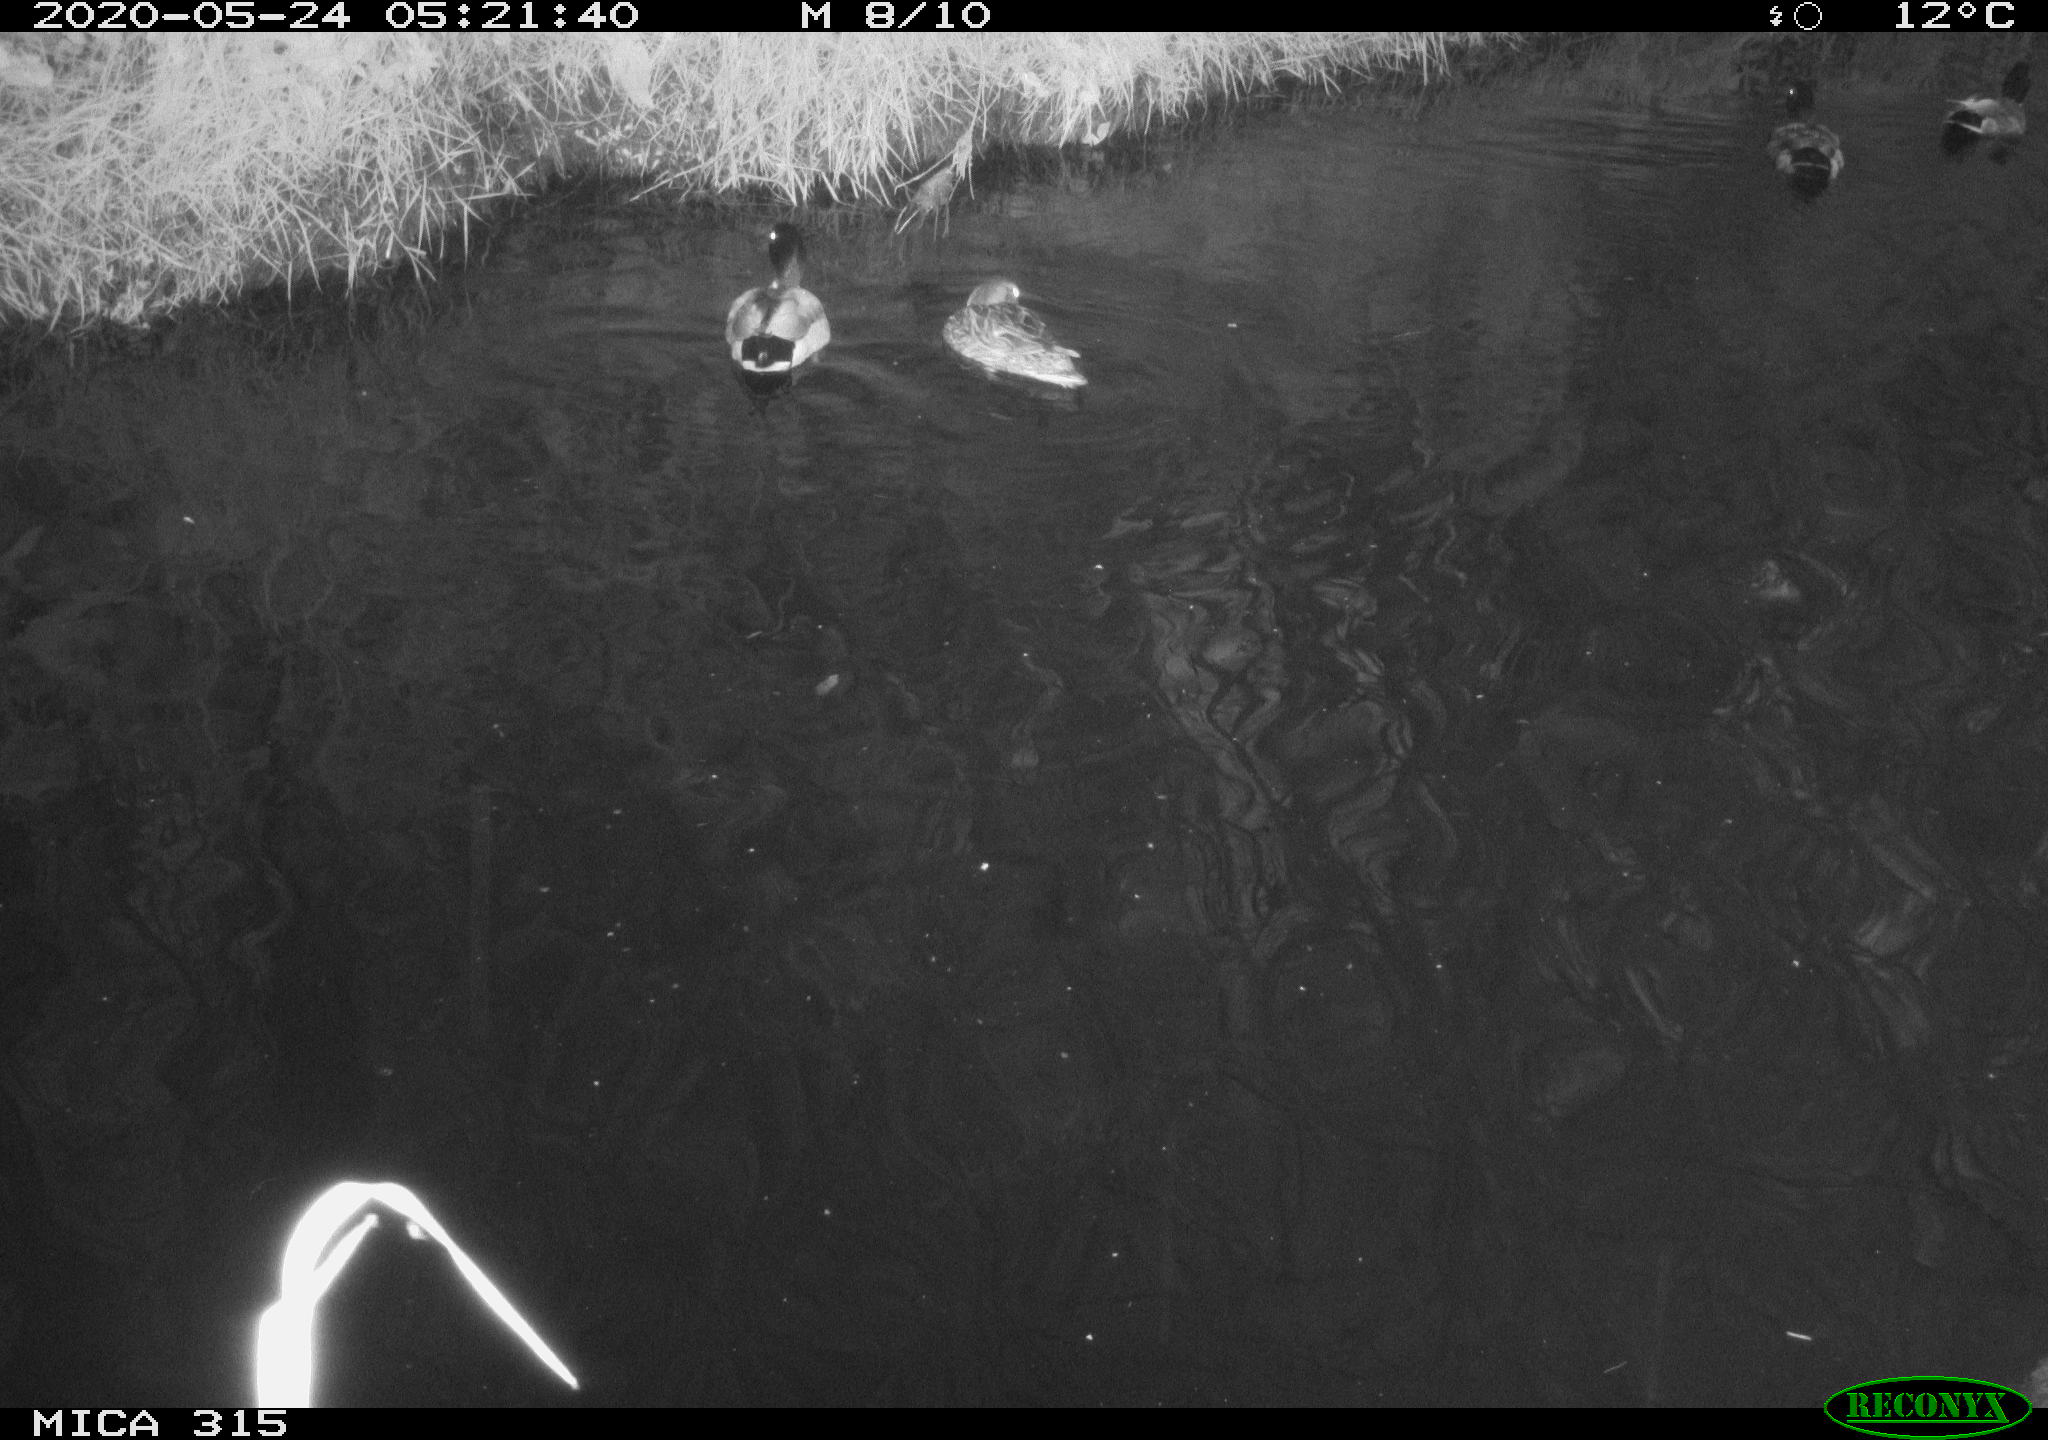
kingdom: Animalia
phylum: Chordata
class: Aves
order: Anseriformes
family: Anatidae
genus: Anas
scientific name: Anas platyrhynchos
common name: Mallard
